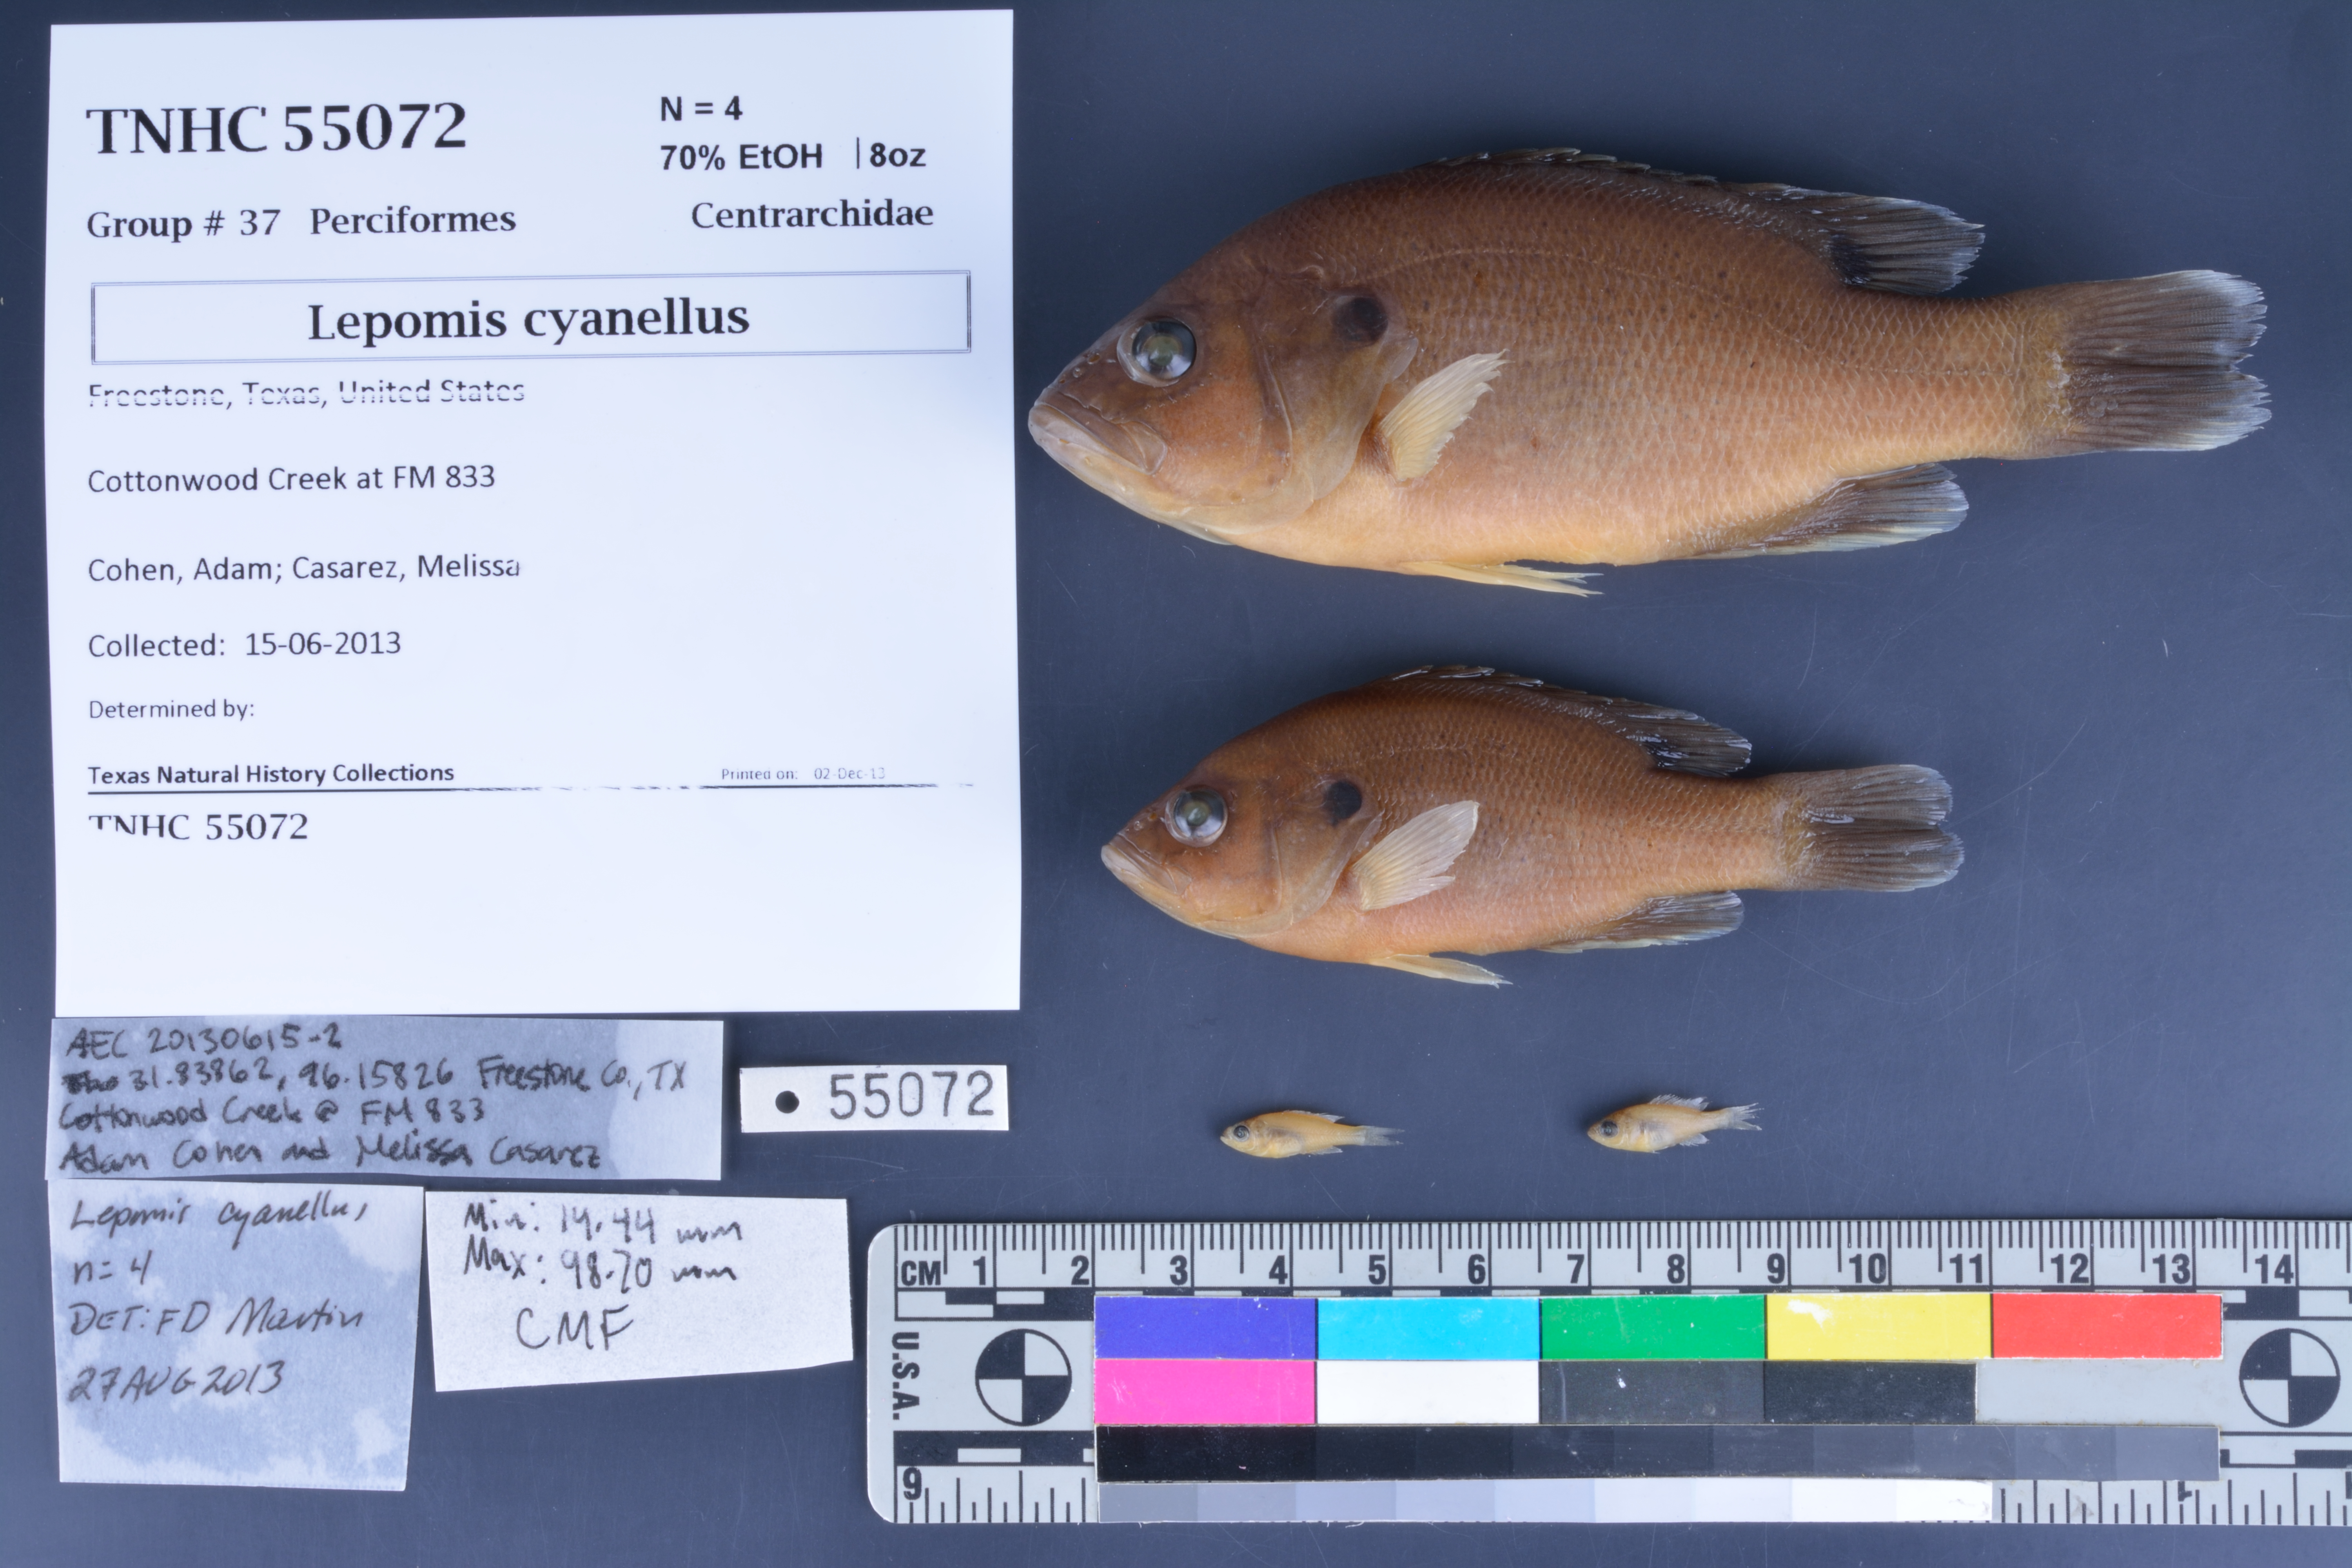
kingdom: Animalia
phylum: Chordata
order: Perciformes
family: Centrarchidae
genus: Lepomis
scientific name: Lepomis cyanellus
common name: Green sunfish
